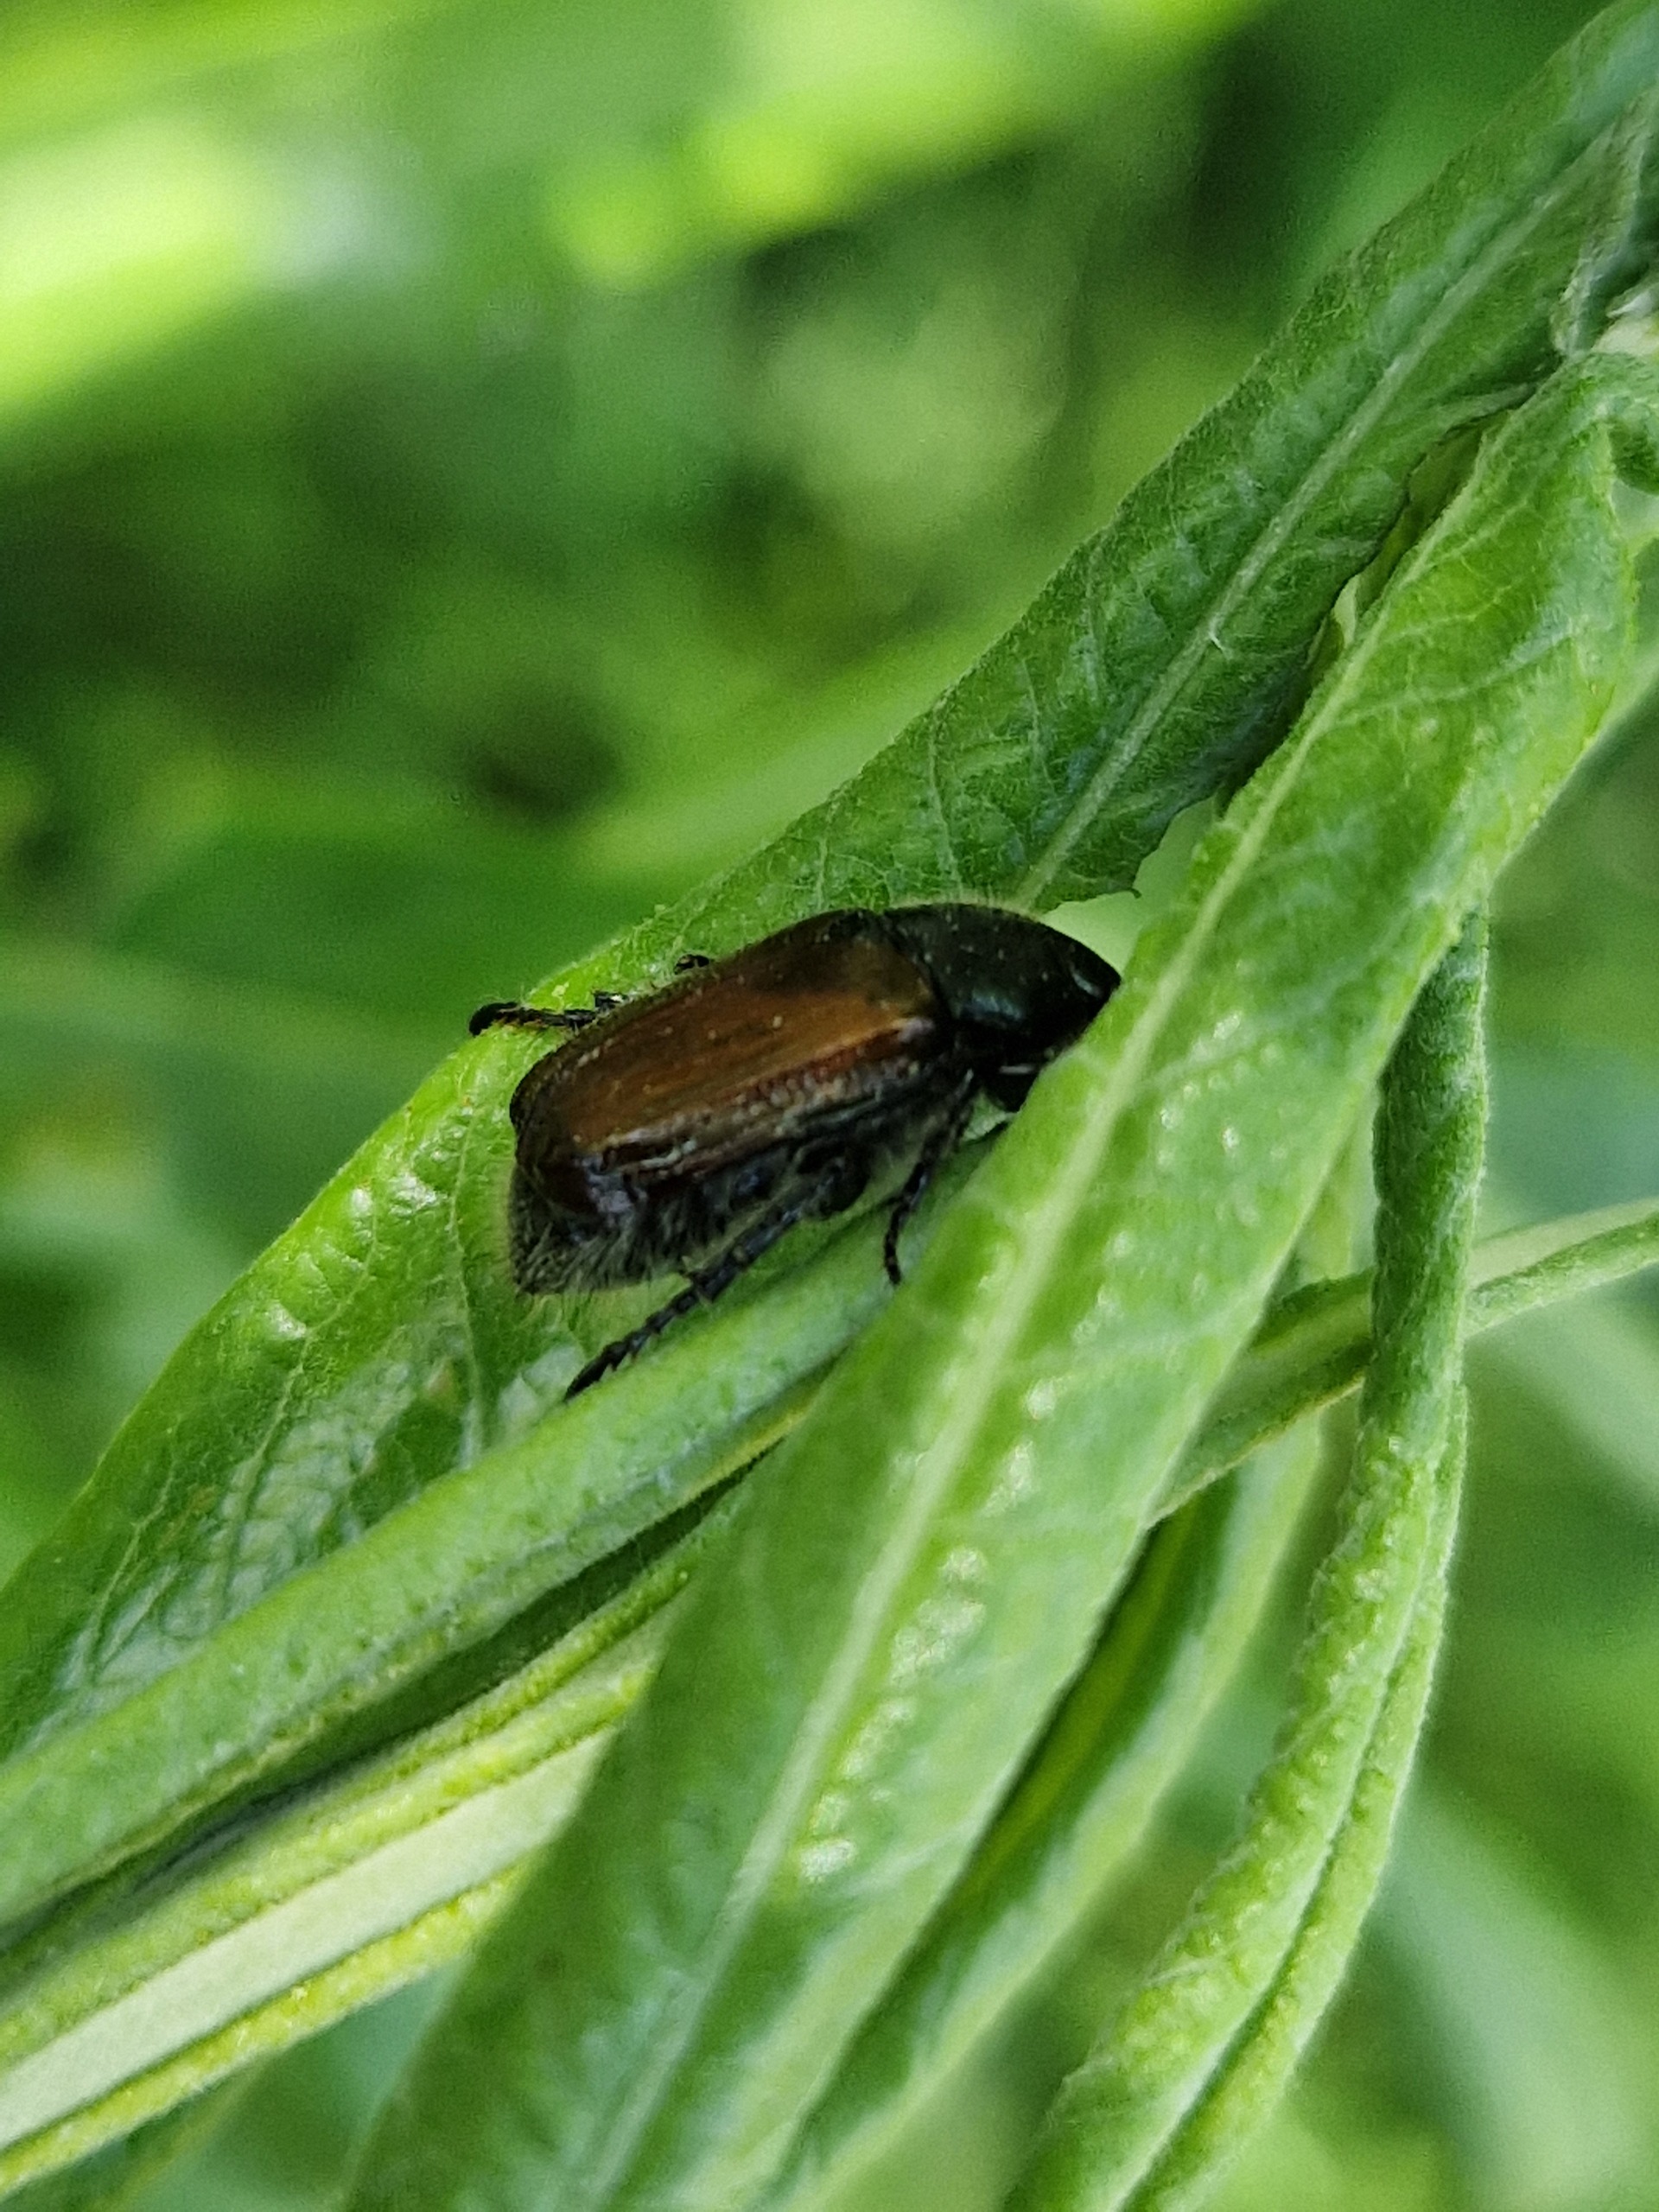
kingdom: Animalia
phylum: Arthropoda
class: Insecta
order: Coleoptera
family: Scarabaeidae
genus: Phyllopertha
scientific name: Phyllopertha horticola
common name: Gåsebille
